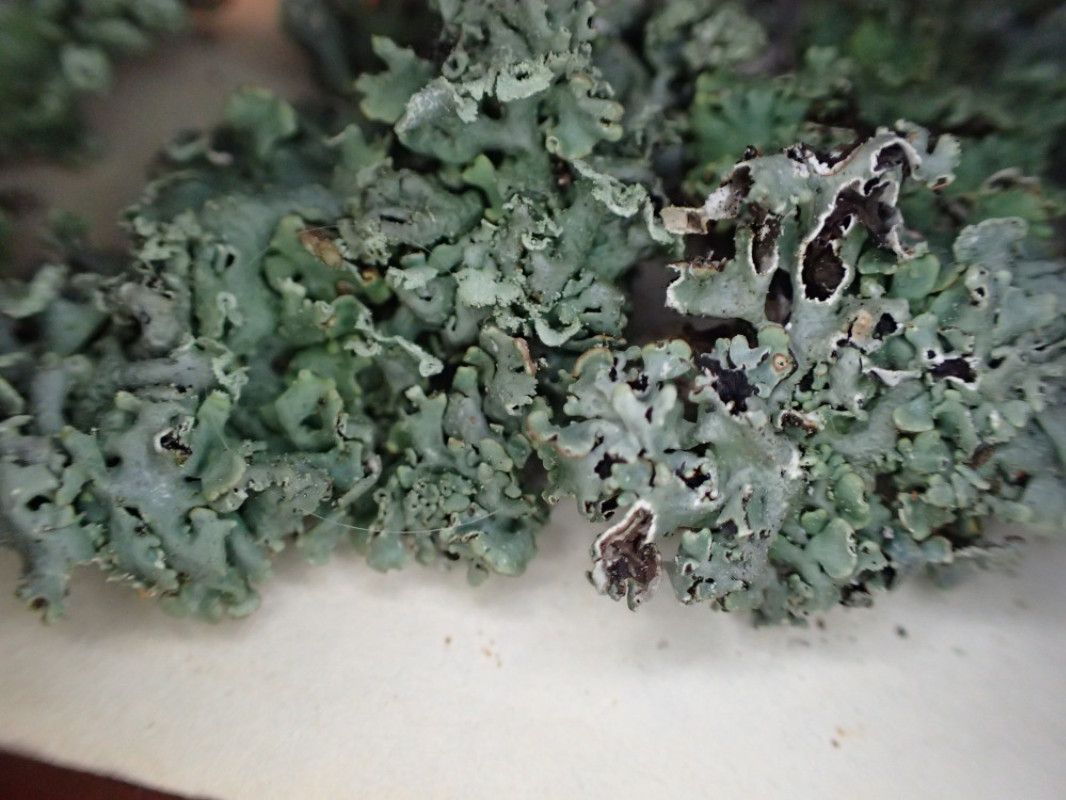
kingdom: Fungi
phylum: Ascomycota
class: Lecanoromycetes
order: Lecanorales
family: Parmeliaceae
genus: Hypogymnia
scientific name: Hypogymnia physodes
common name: almindelig kvistlav
